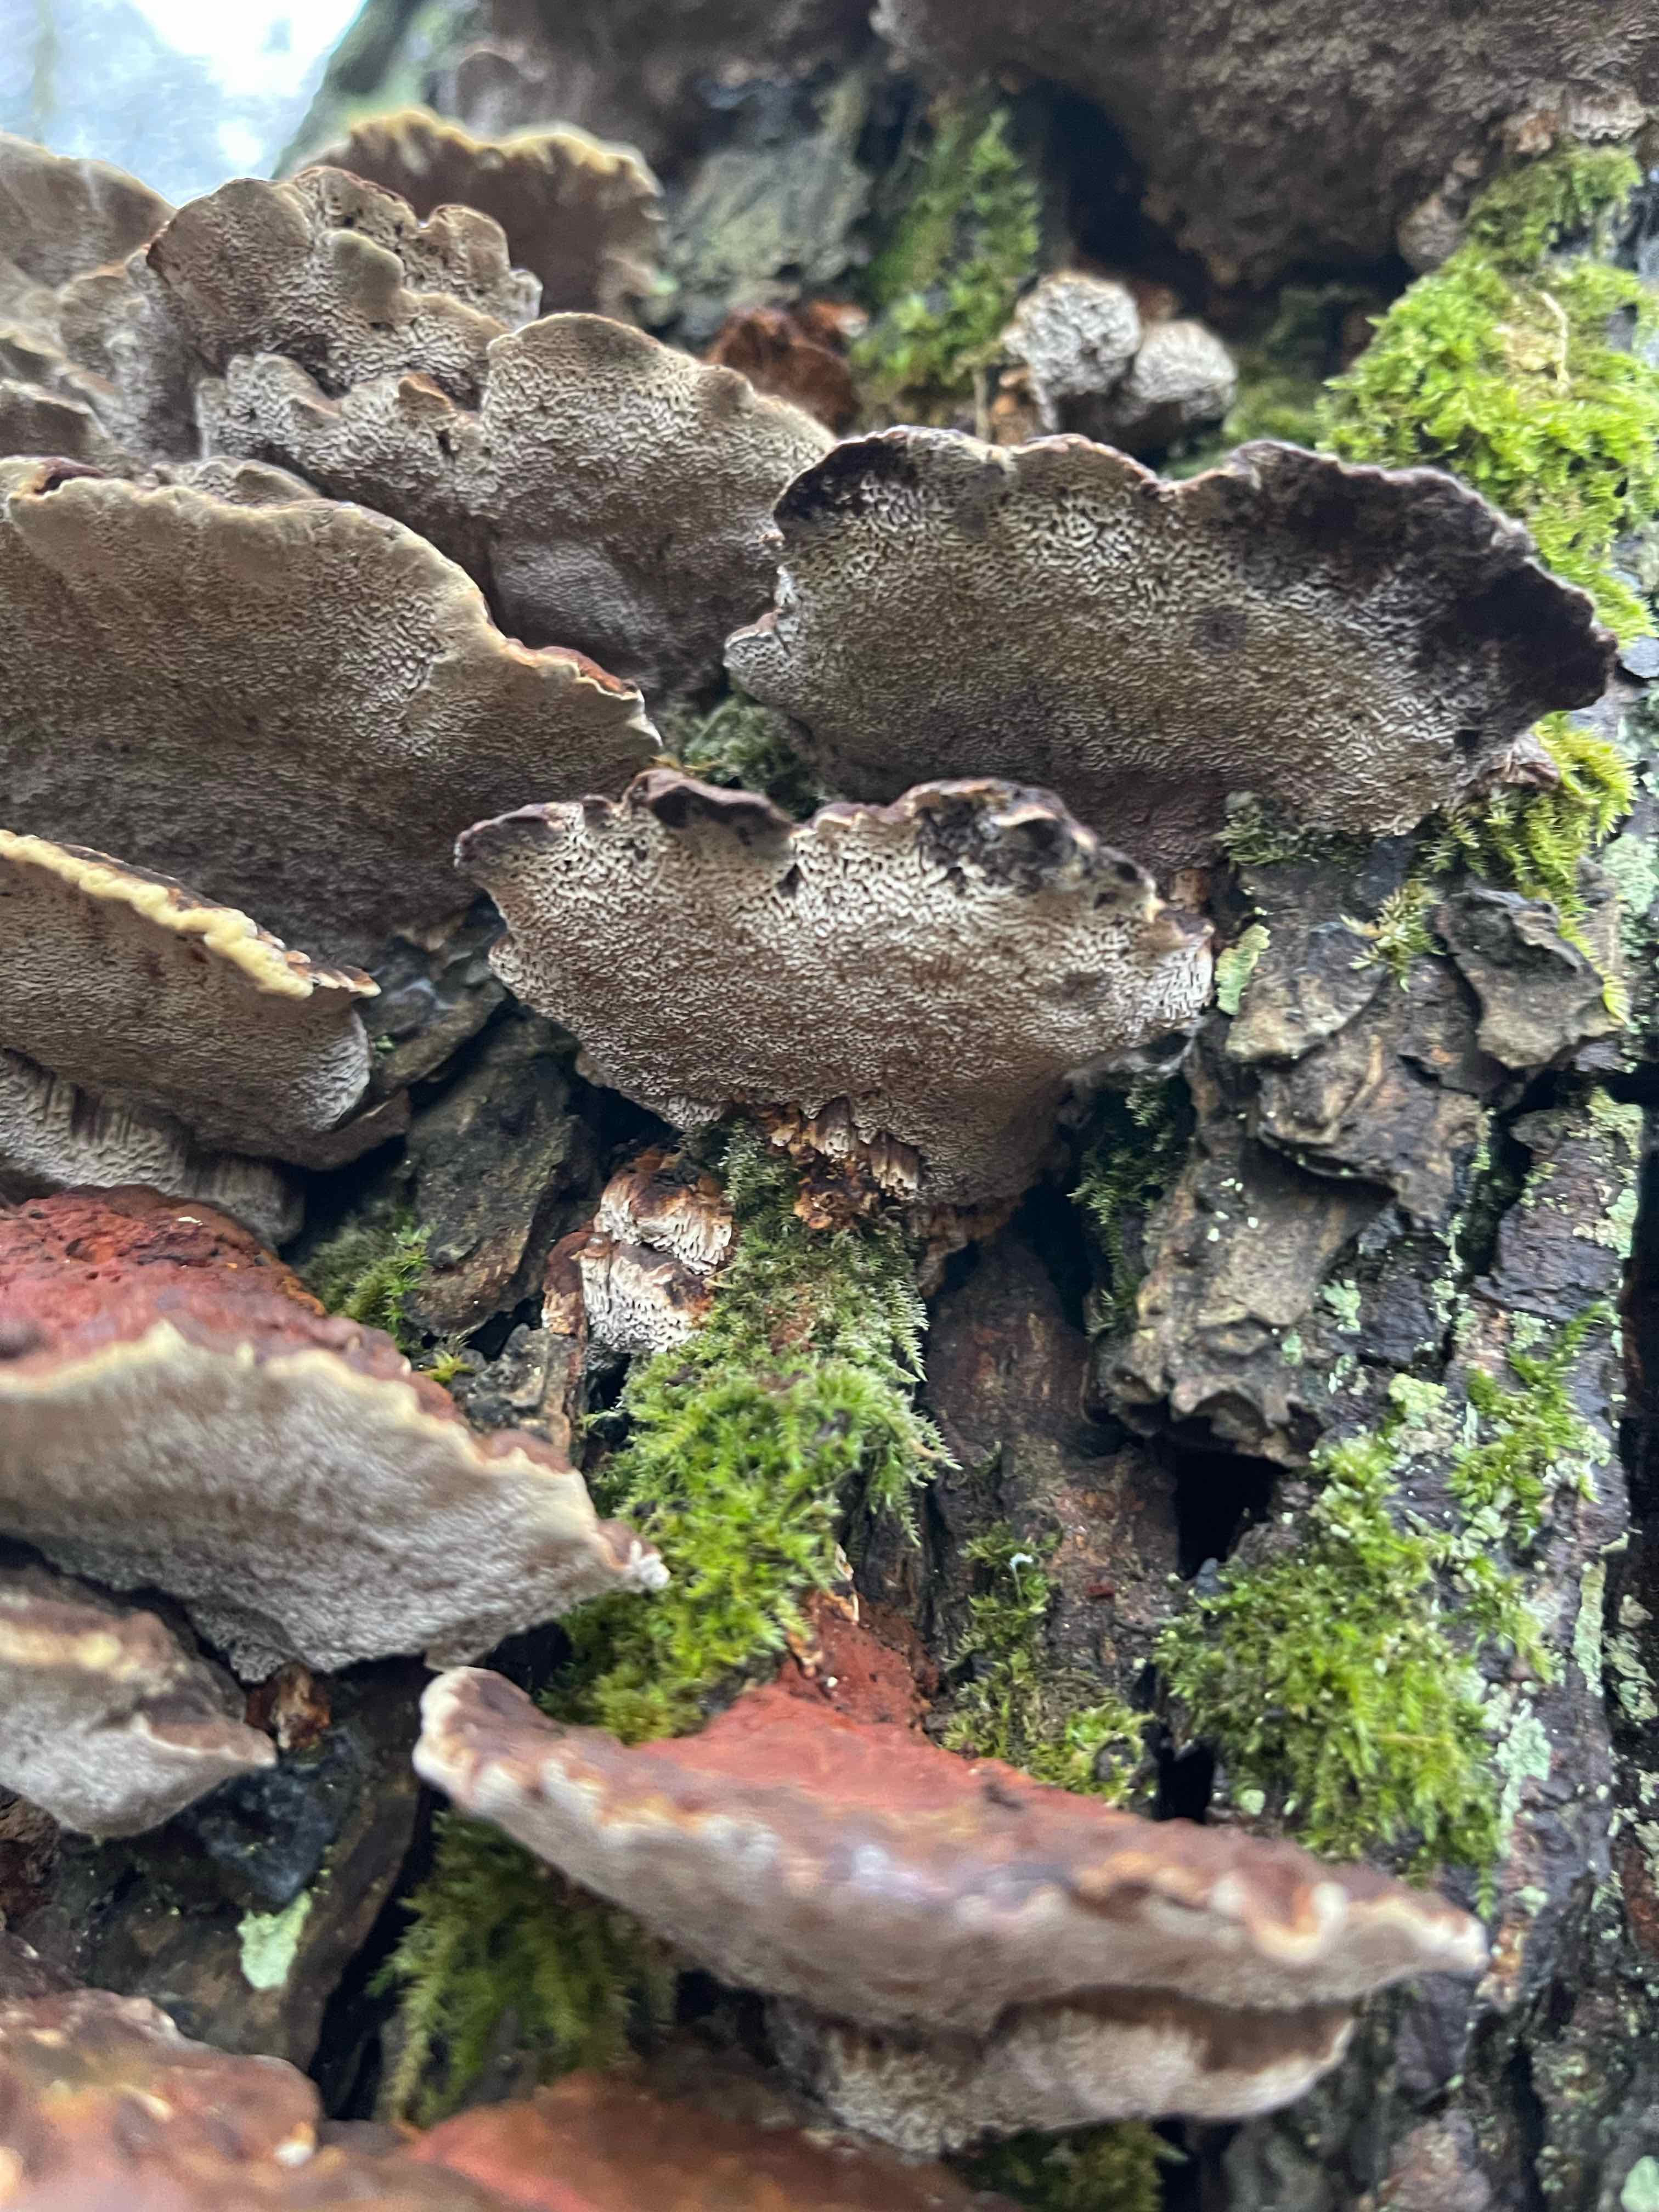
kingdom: Fungi
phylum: Basidiomycota
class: Agaricomycetes
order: Hymenochaetales
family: Hymenochaetaceae
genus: Xanthoporia
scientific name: Xanthoporia radiata
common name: elle-spejlporesvamp
